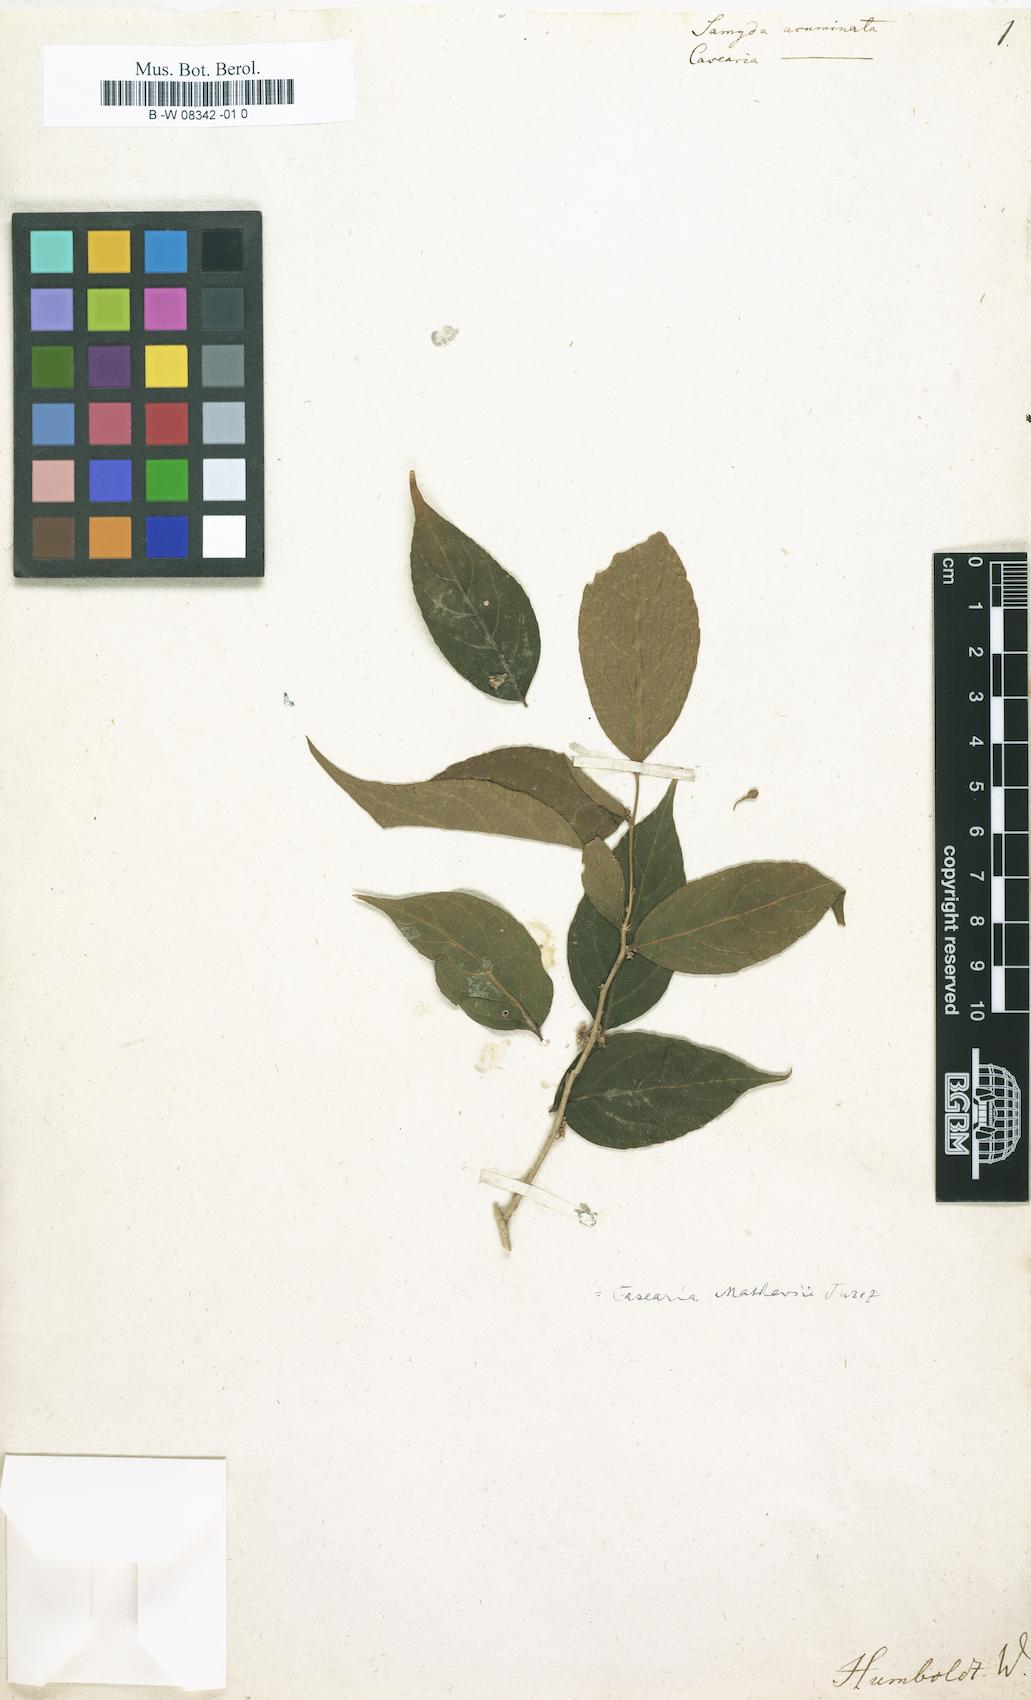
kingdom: Plantae
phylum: Tracheophyta
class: Magnoliopsida
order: Malpighiales
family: Salicaceae
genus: Casearia
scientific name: Casearia kigeri
